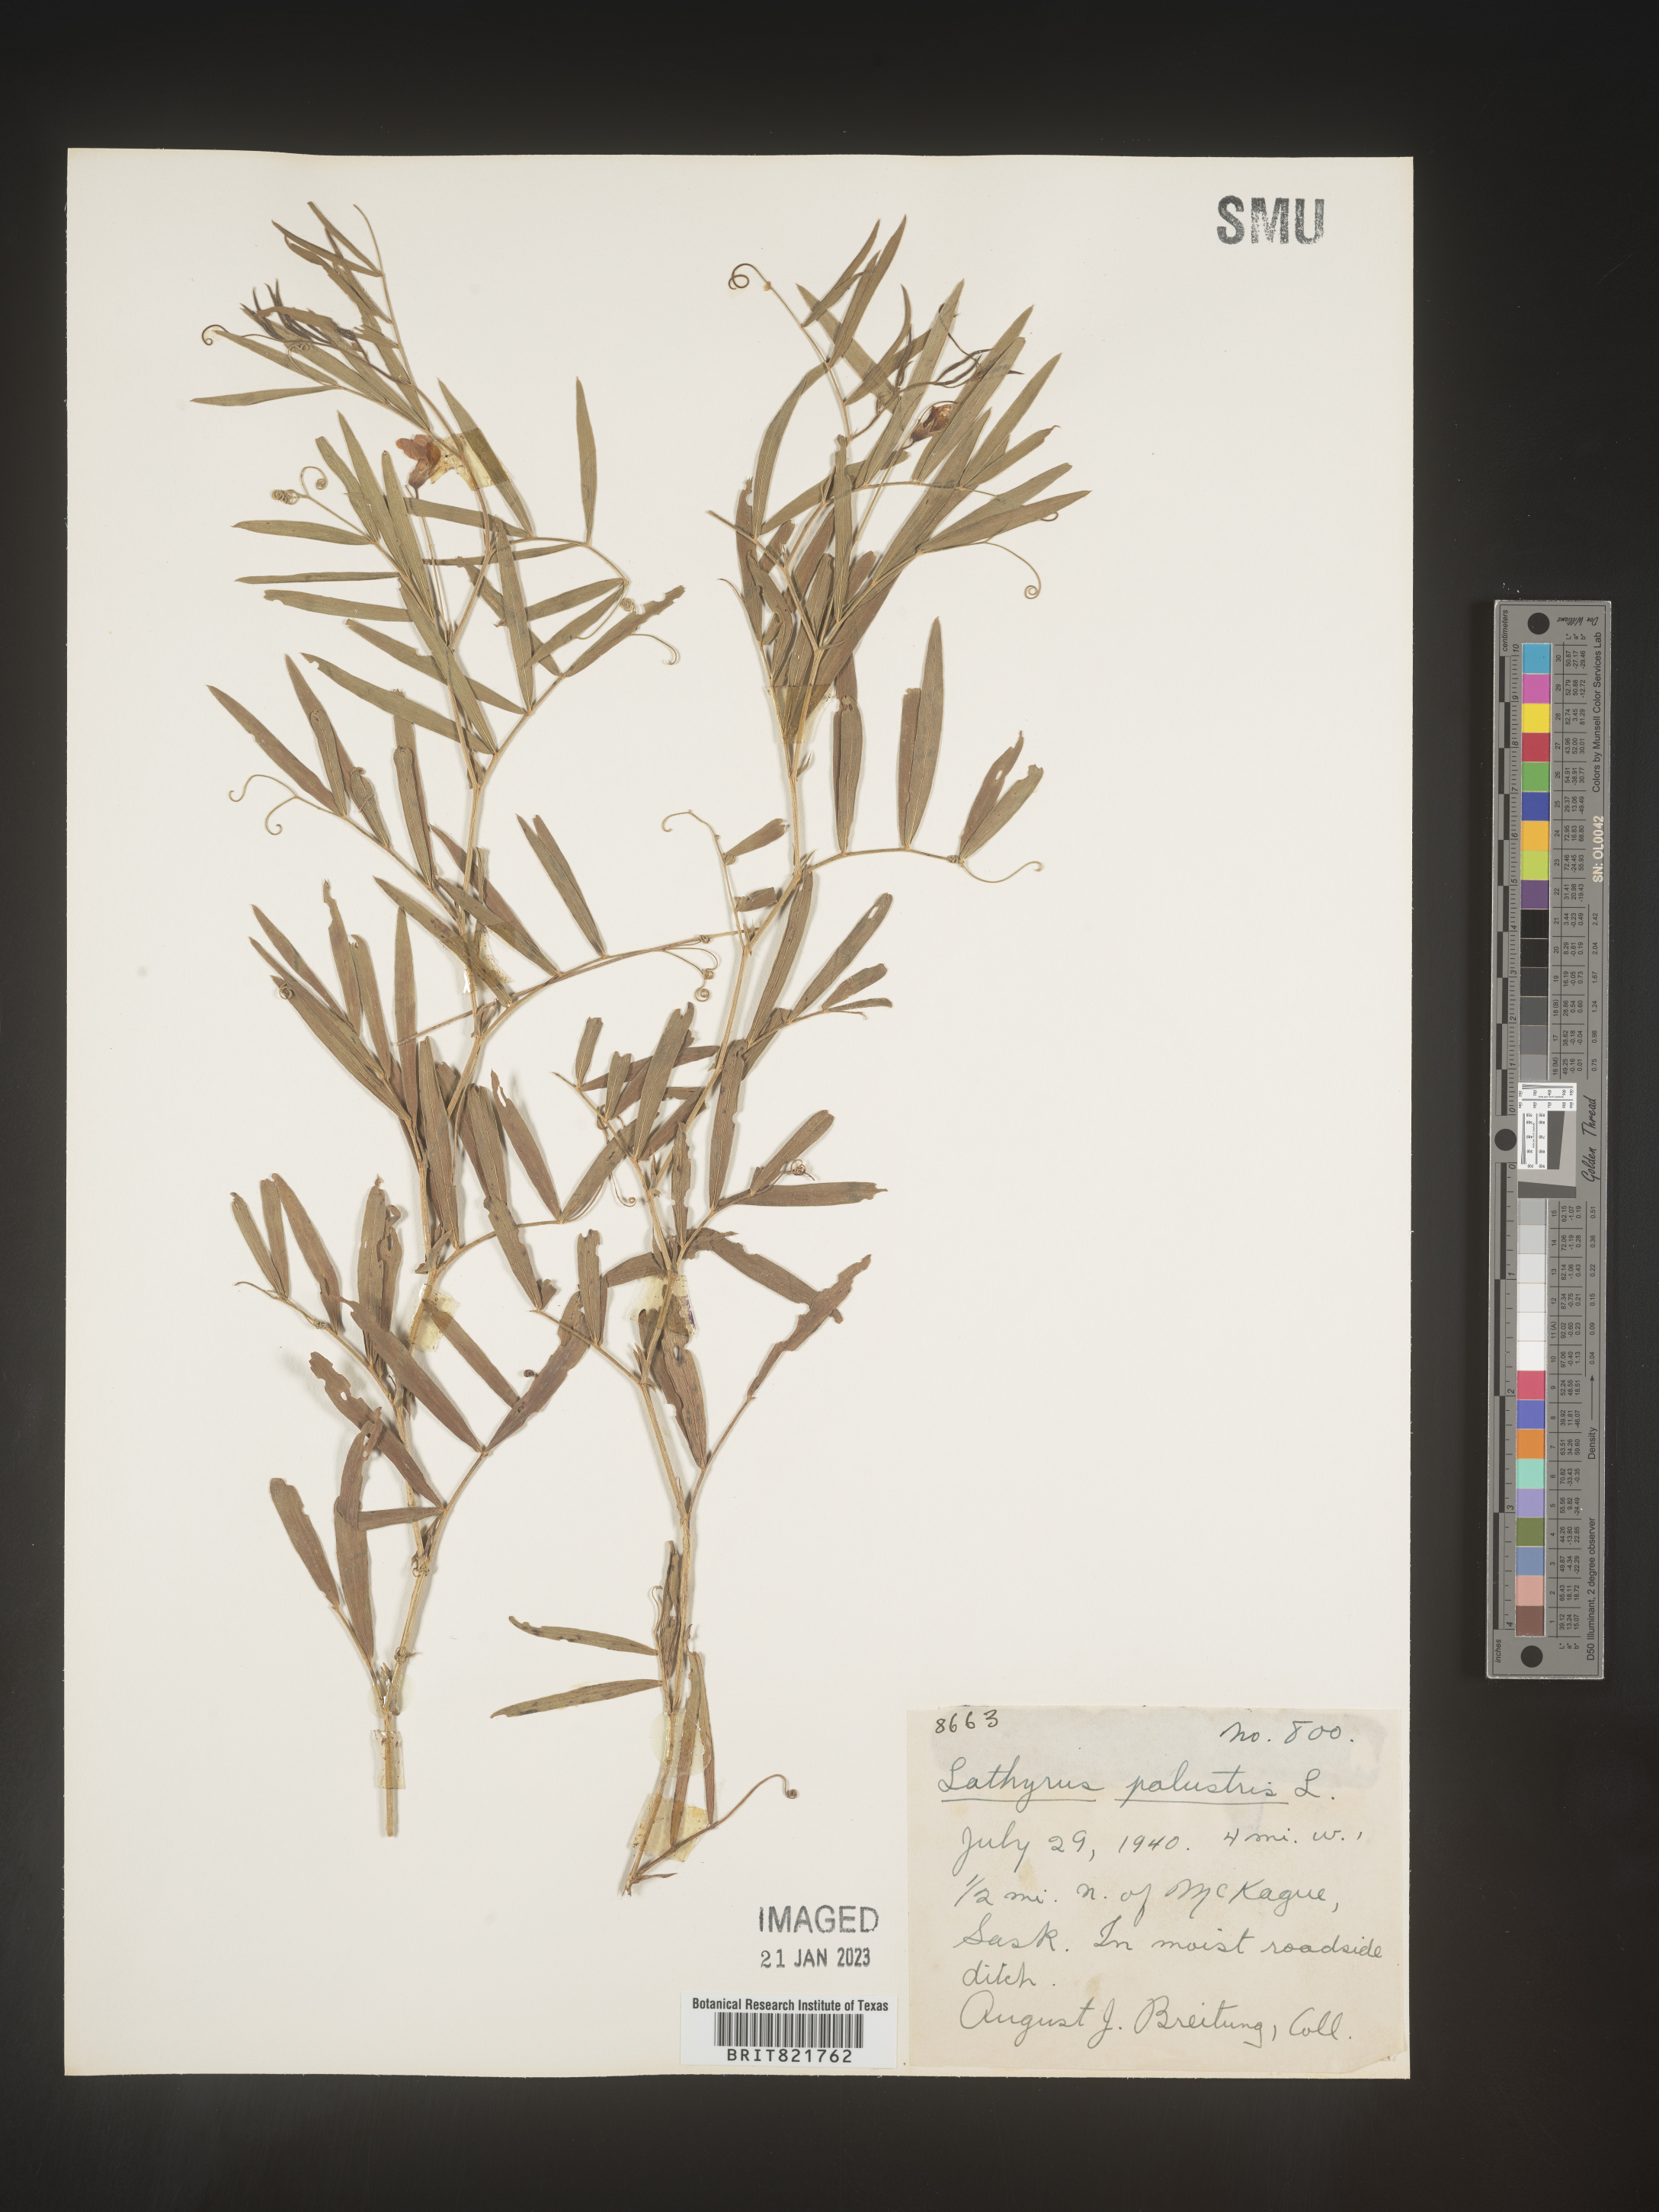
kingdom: Plantae
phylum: Tracheophyta
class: Magnoliopsida
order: Fabales
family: Fabaceae
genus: Lathyrus
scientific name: Lathyrus palustris
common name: Marsh pea
